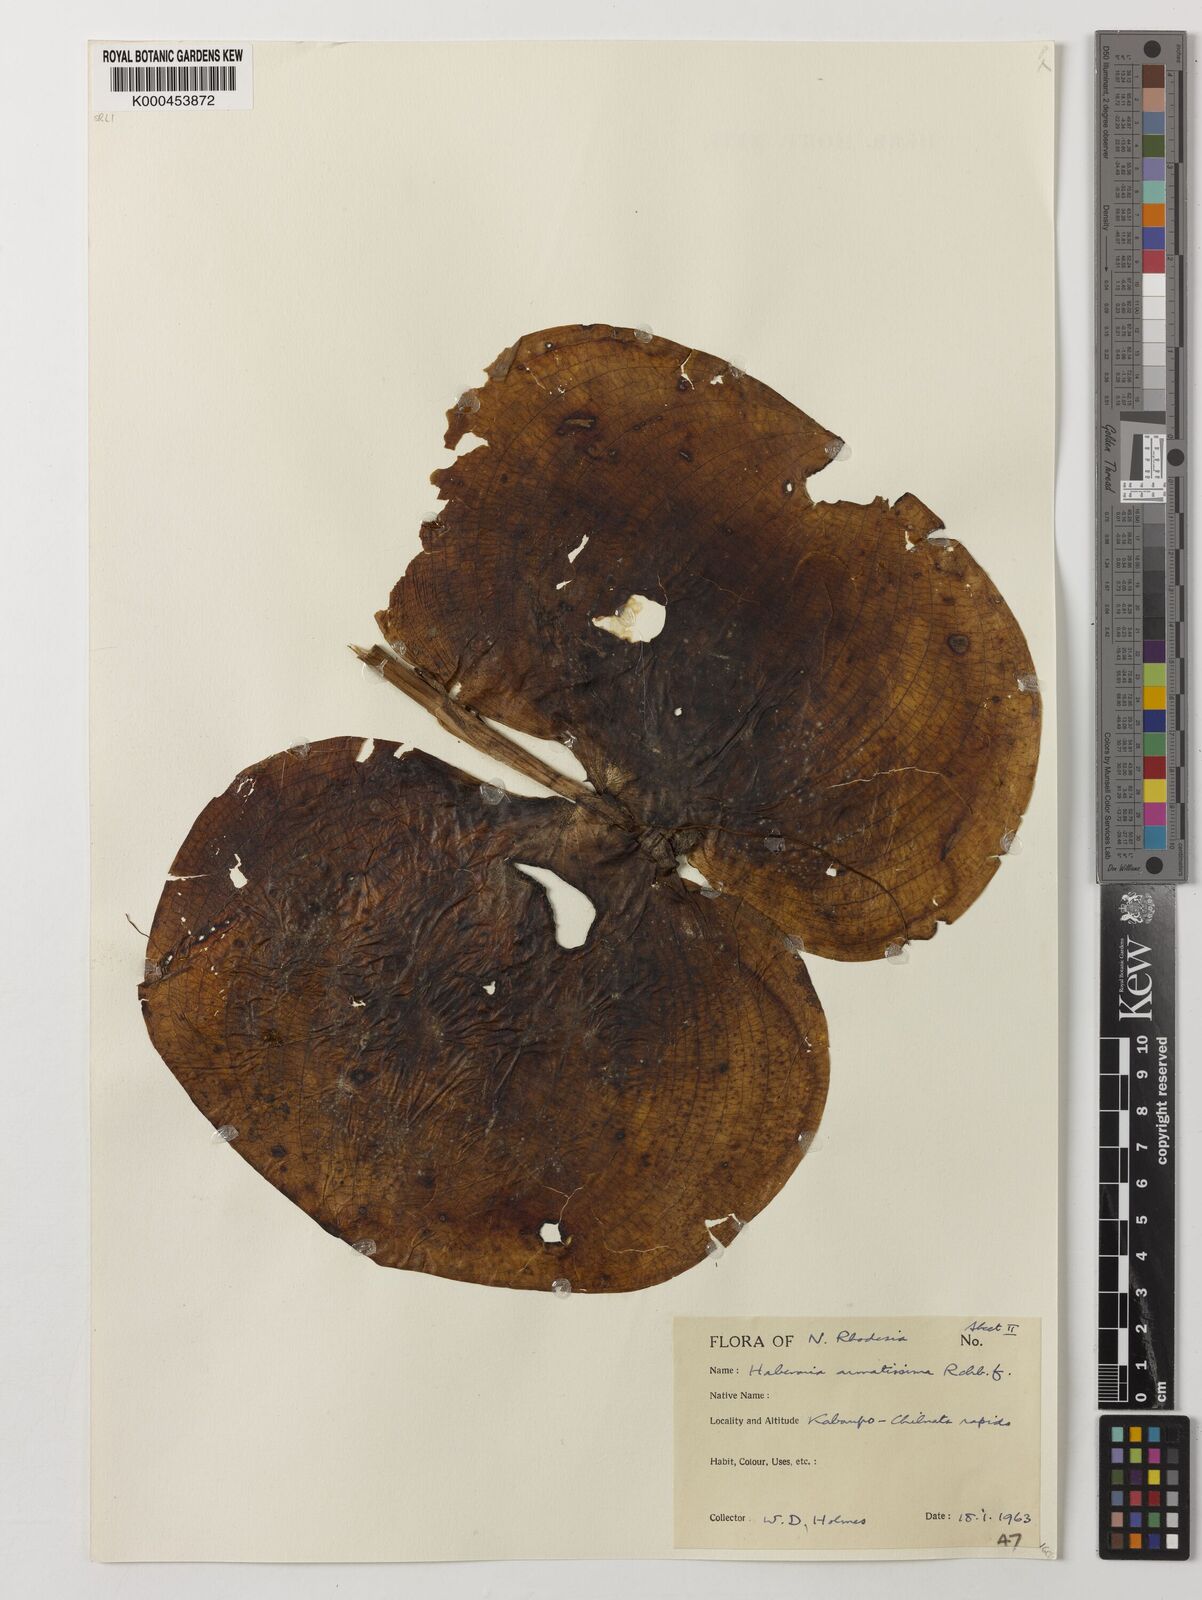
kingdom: Plantae
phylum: Tracheophyta
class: Liliopsida
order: Asparagales
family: Orchidaceae
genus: Habenaria
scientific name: Habenaria armatissima
